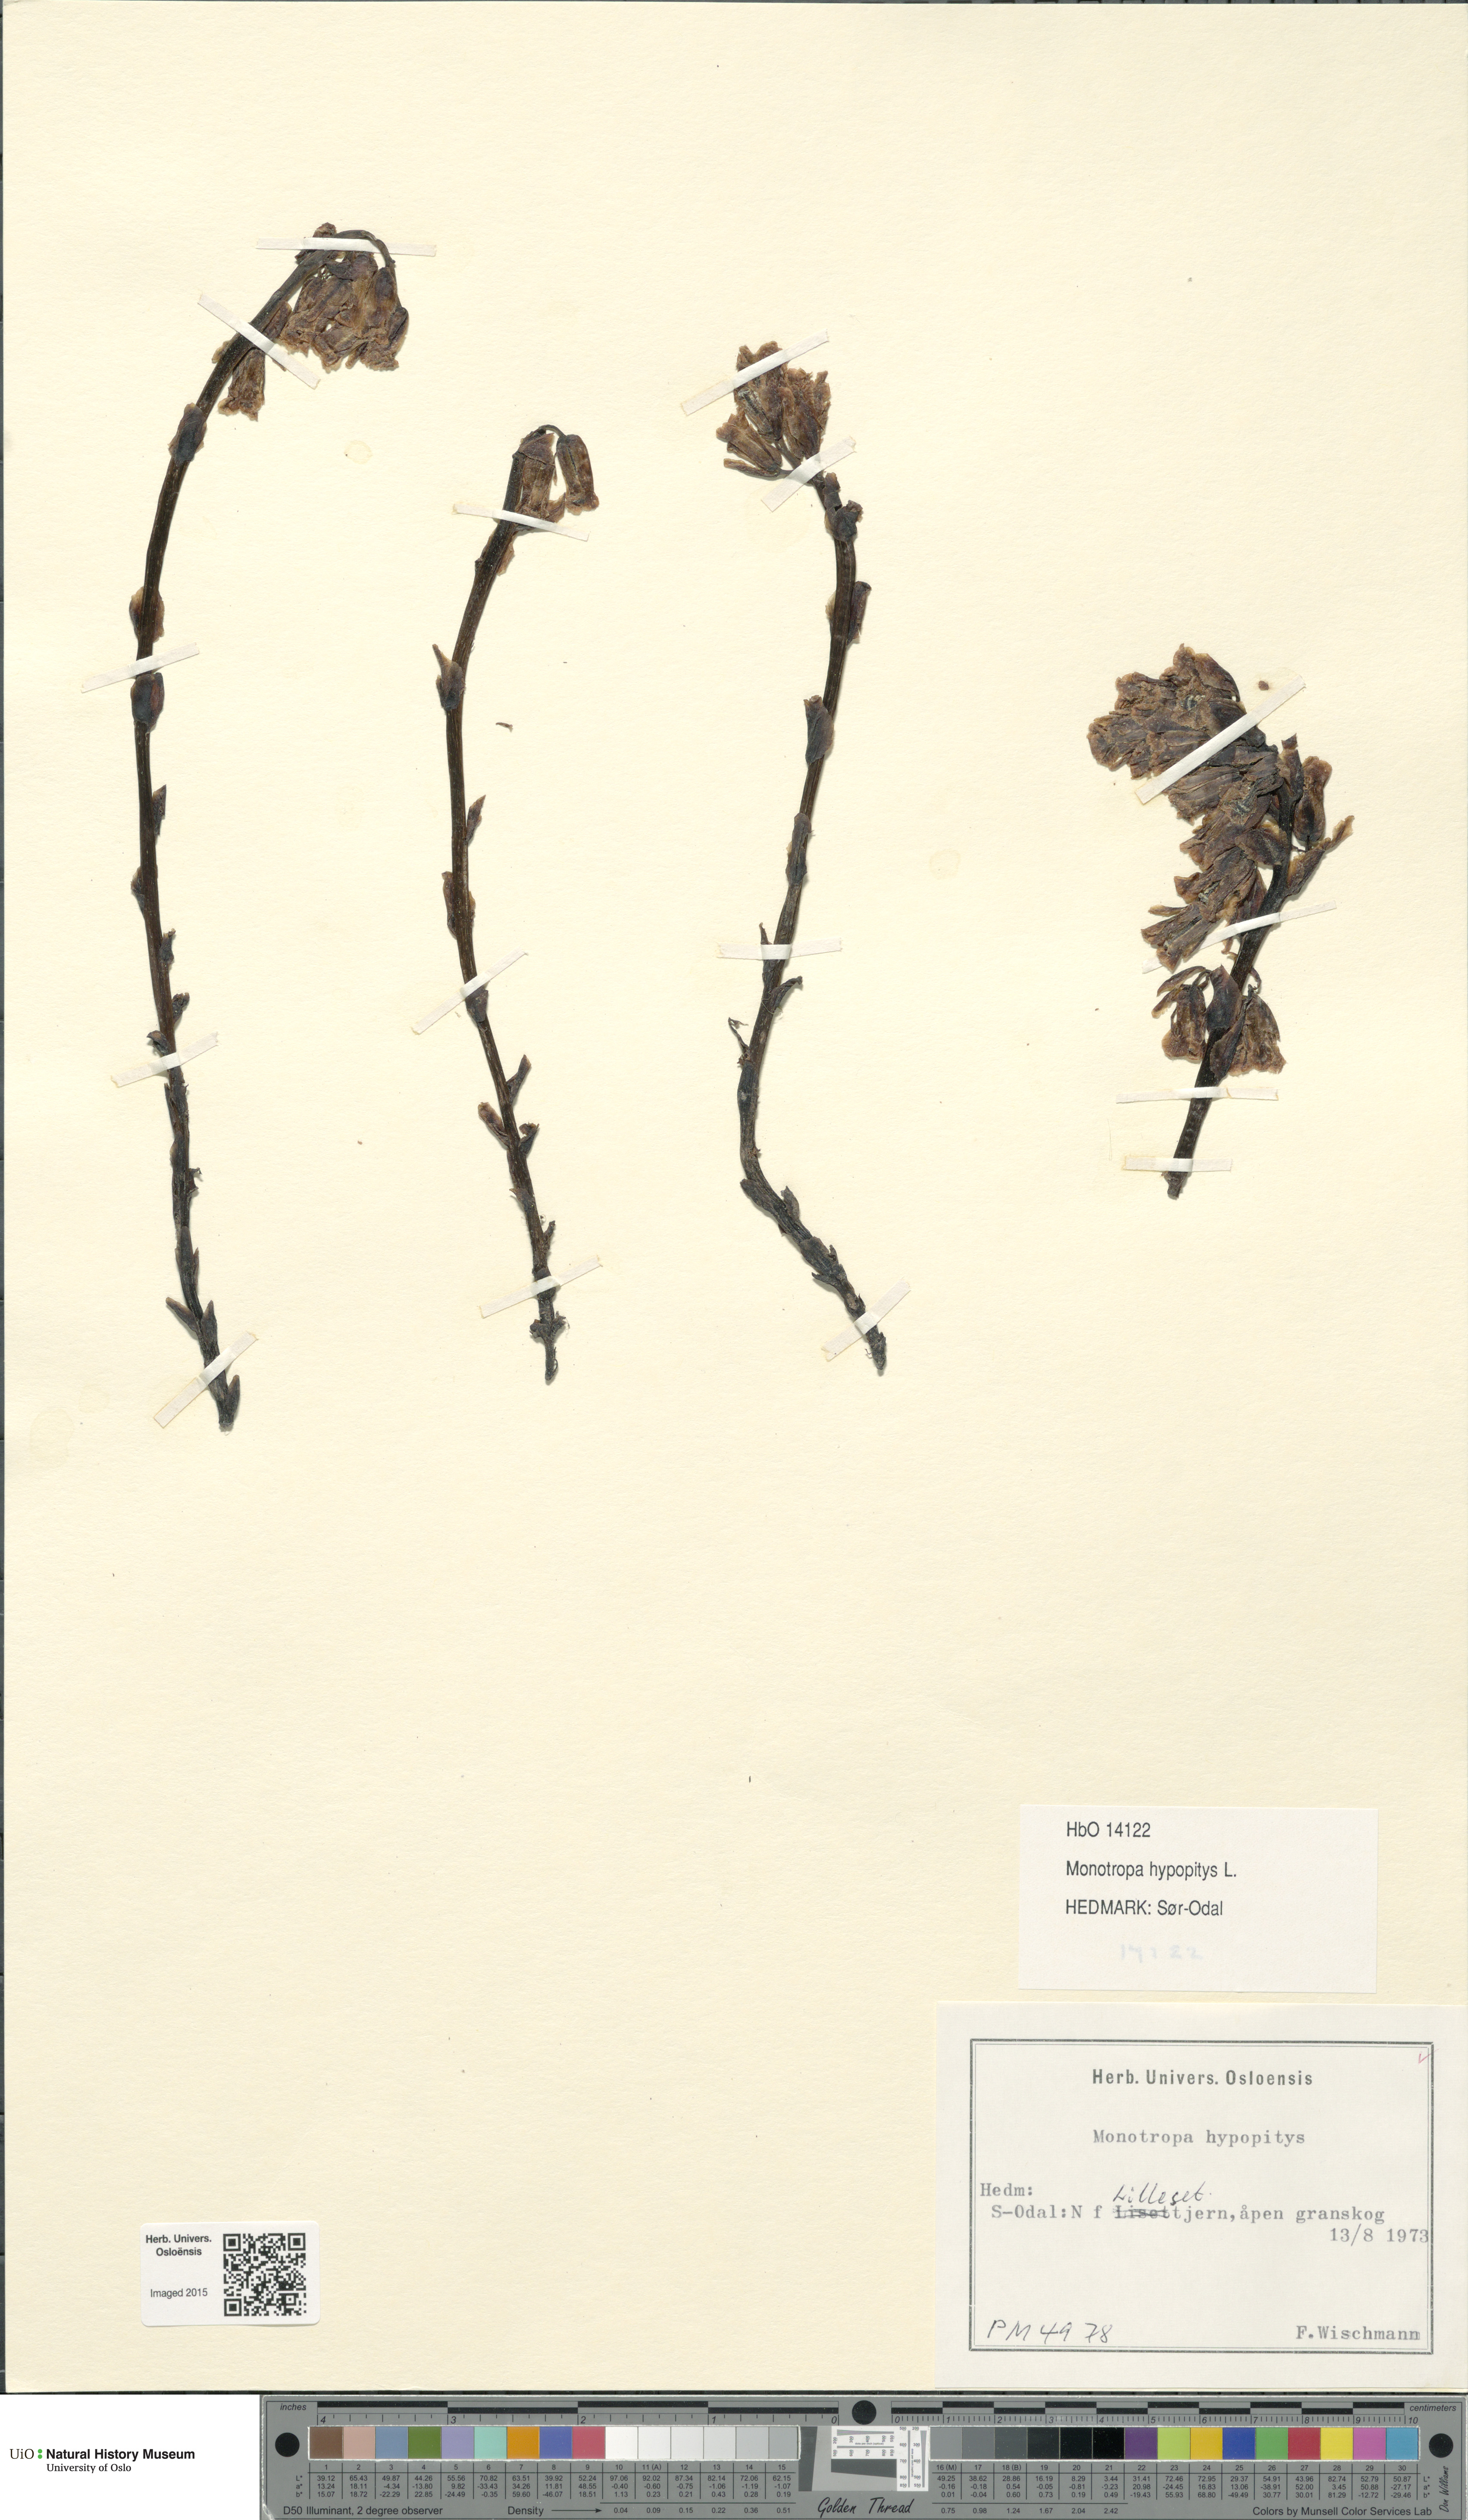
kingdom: Plantae
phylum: Tracheophyta
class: Magnoliopsida
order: Ericales
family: Ericaceae
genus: Hypopitys
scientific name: Hypopitys monotropa
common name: Yellow bird's-nest
